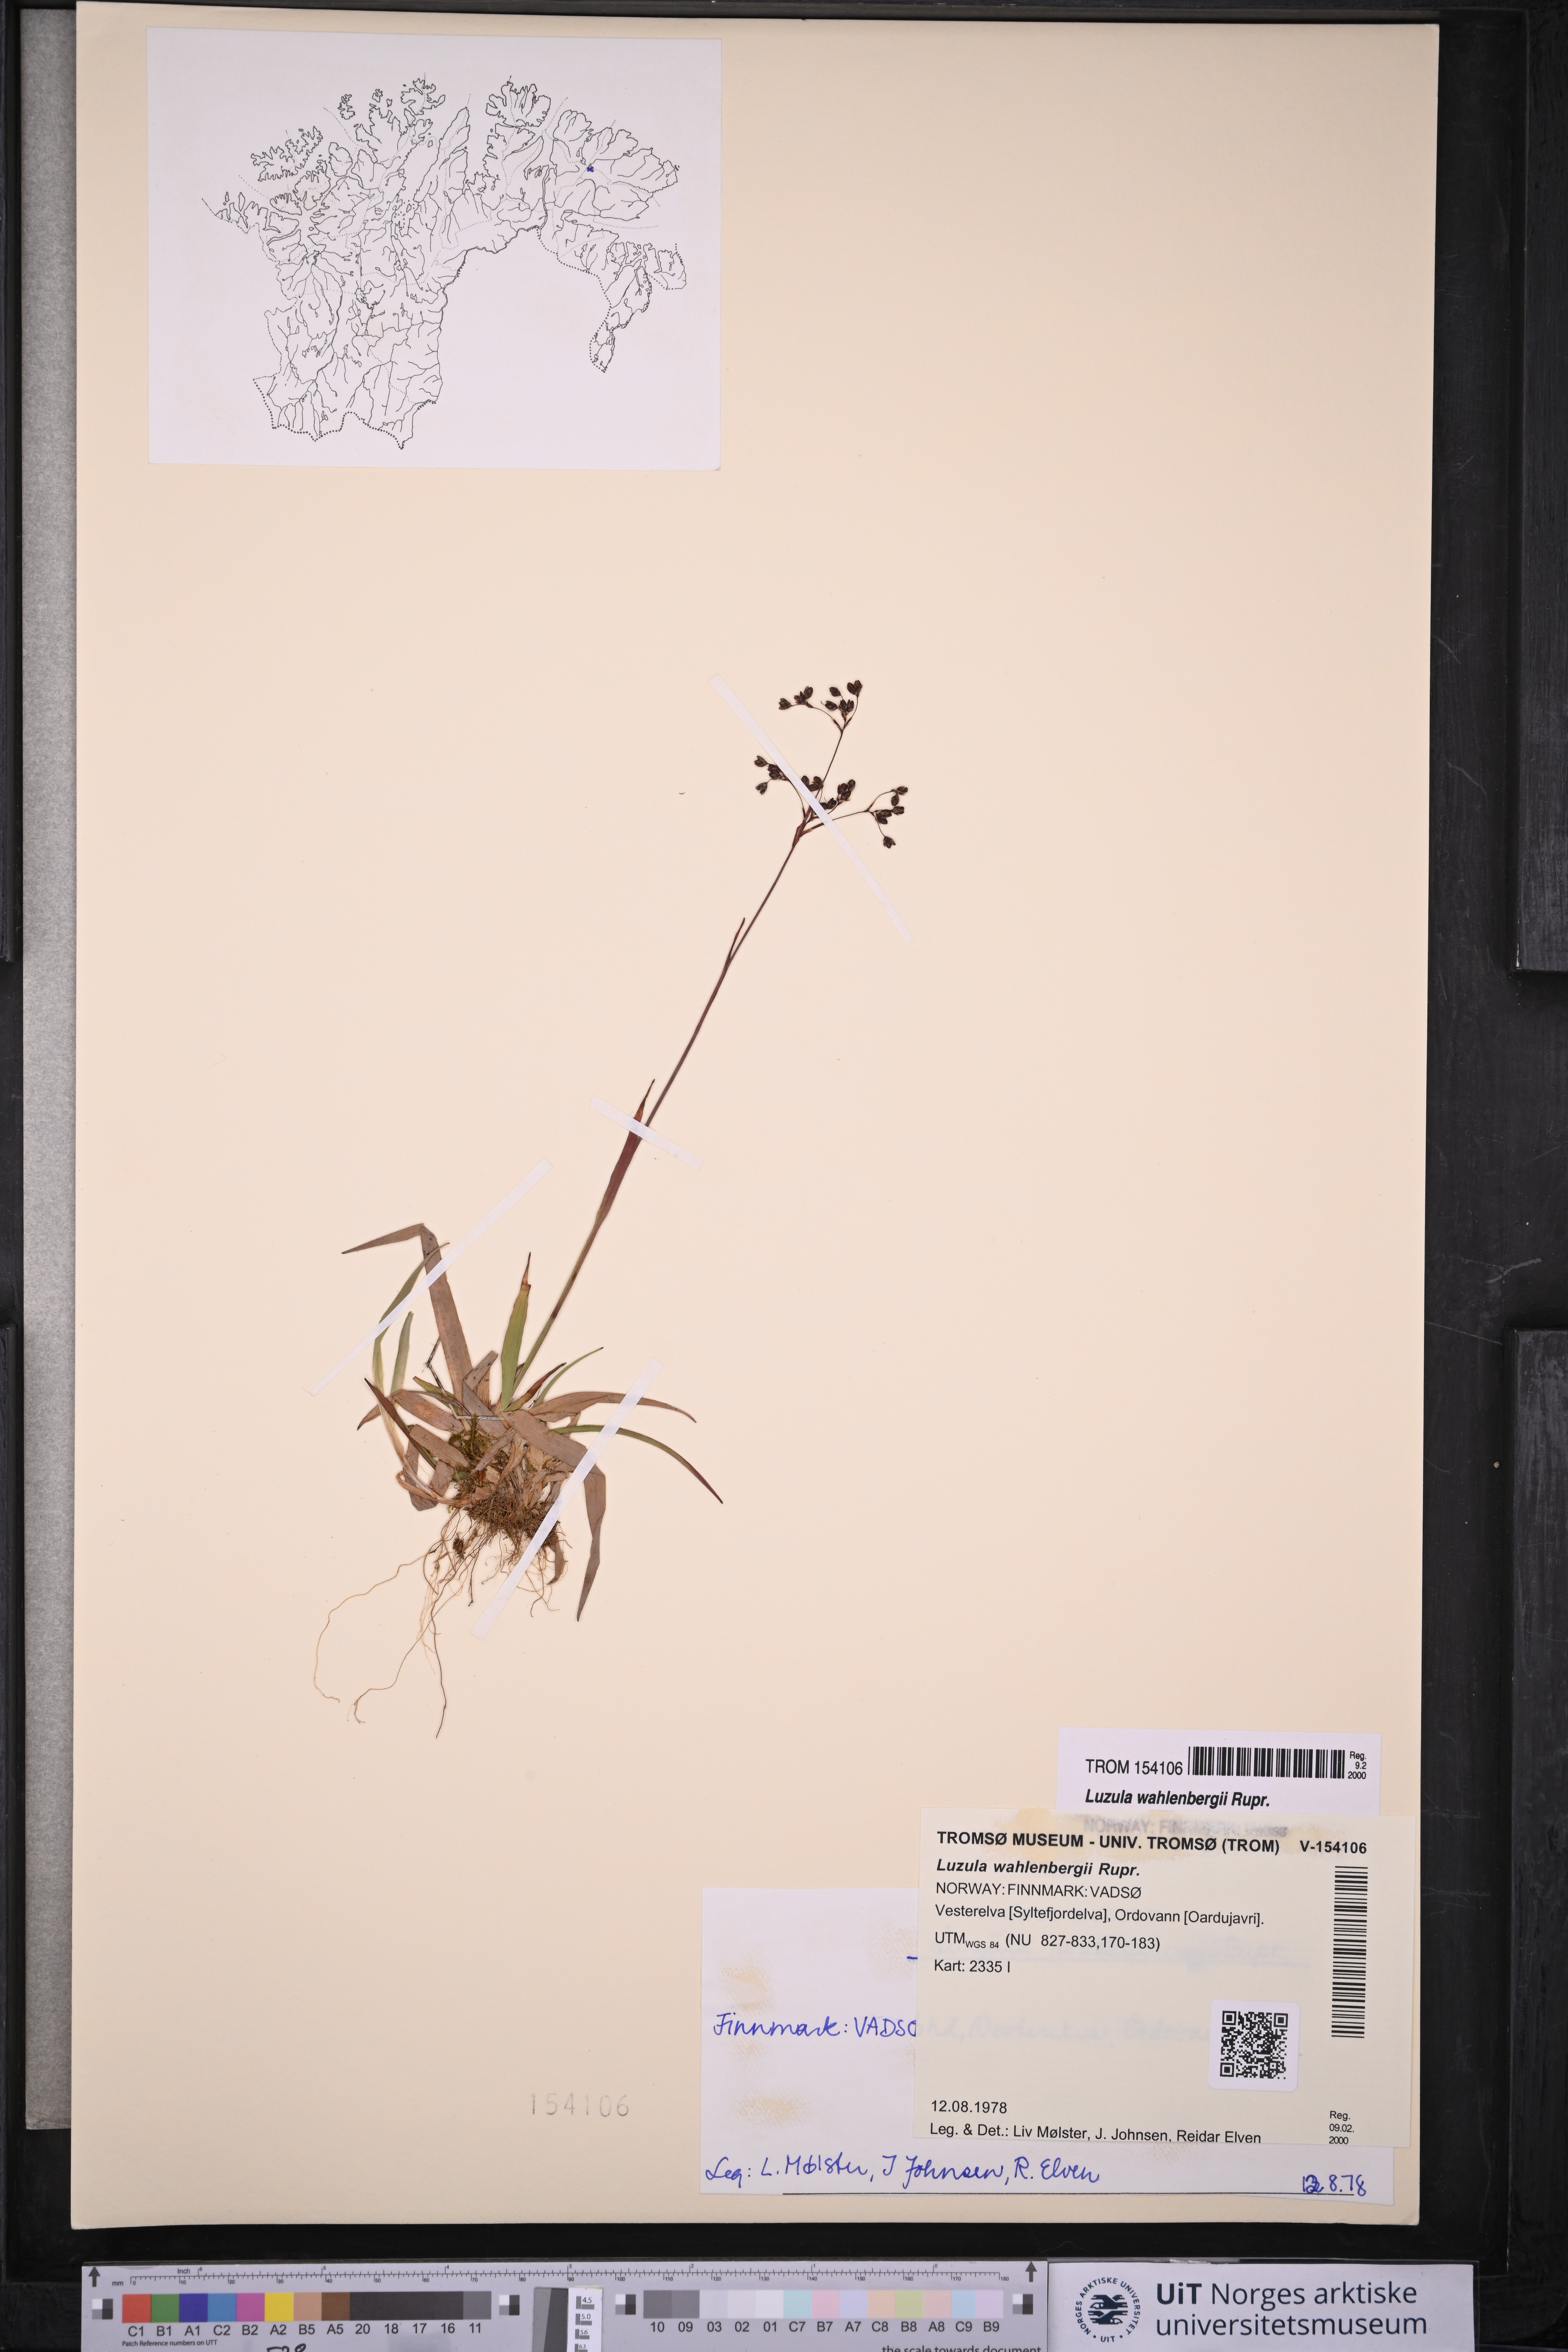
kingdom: Plantae
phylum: Tracheophyta
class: Liliopsida
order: Poales
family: Juncaceae
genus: Luzula
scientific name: Luzula wahlenbergii
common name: Wahlenberg's wood-rush
